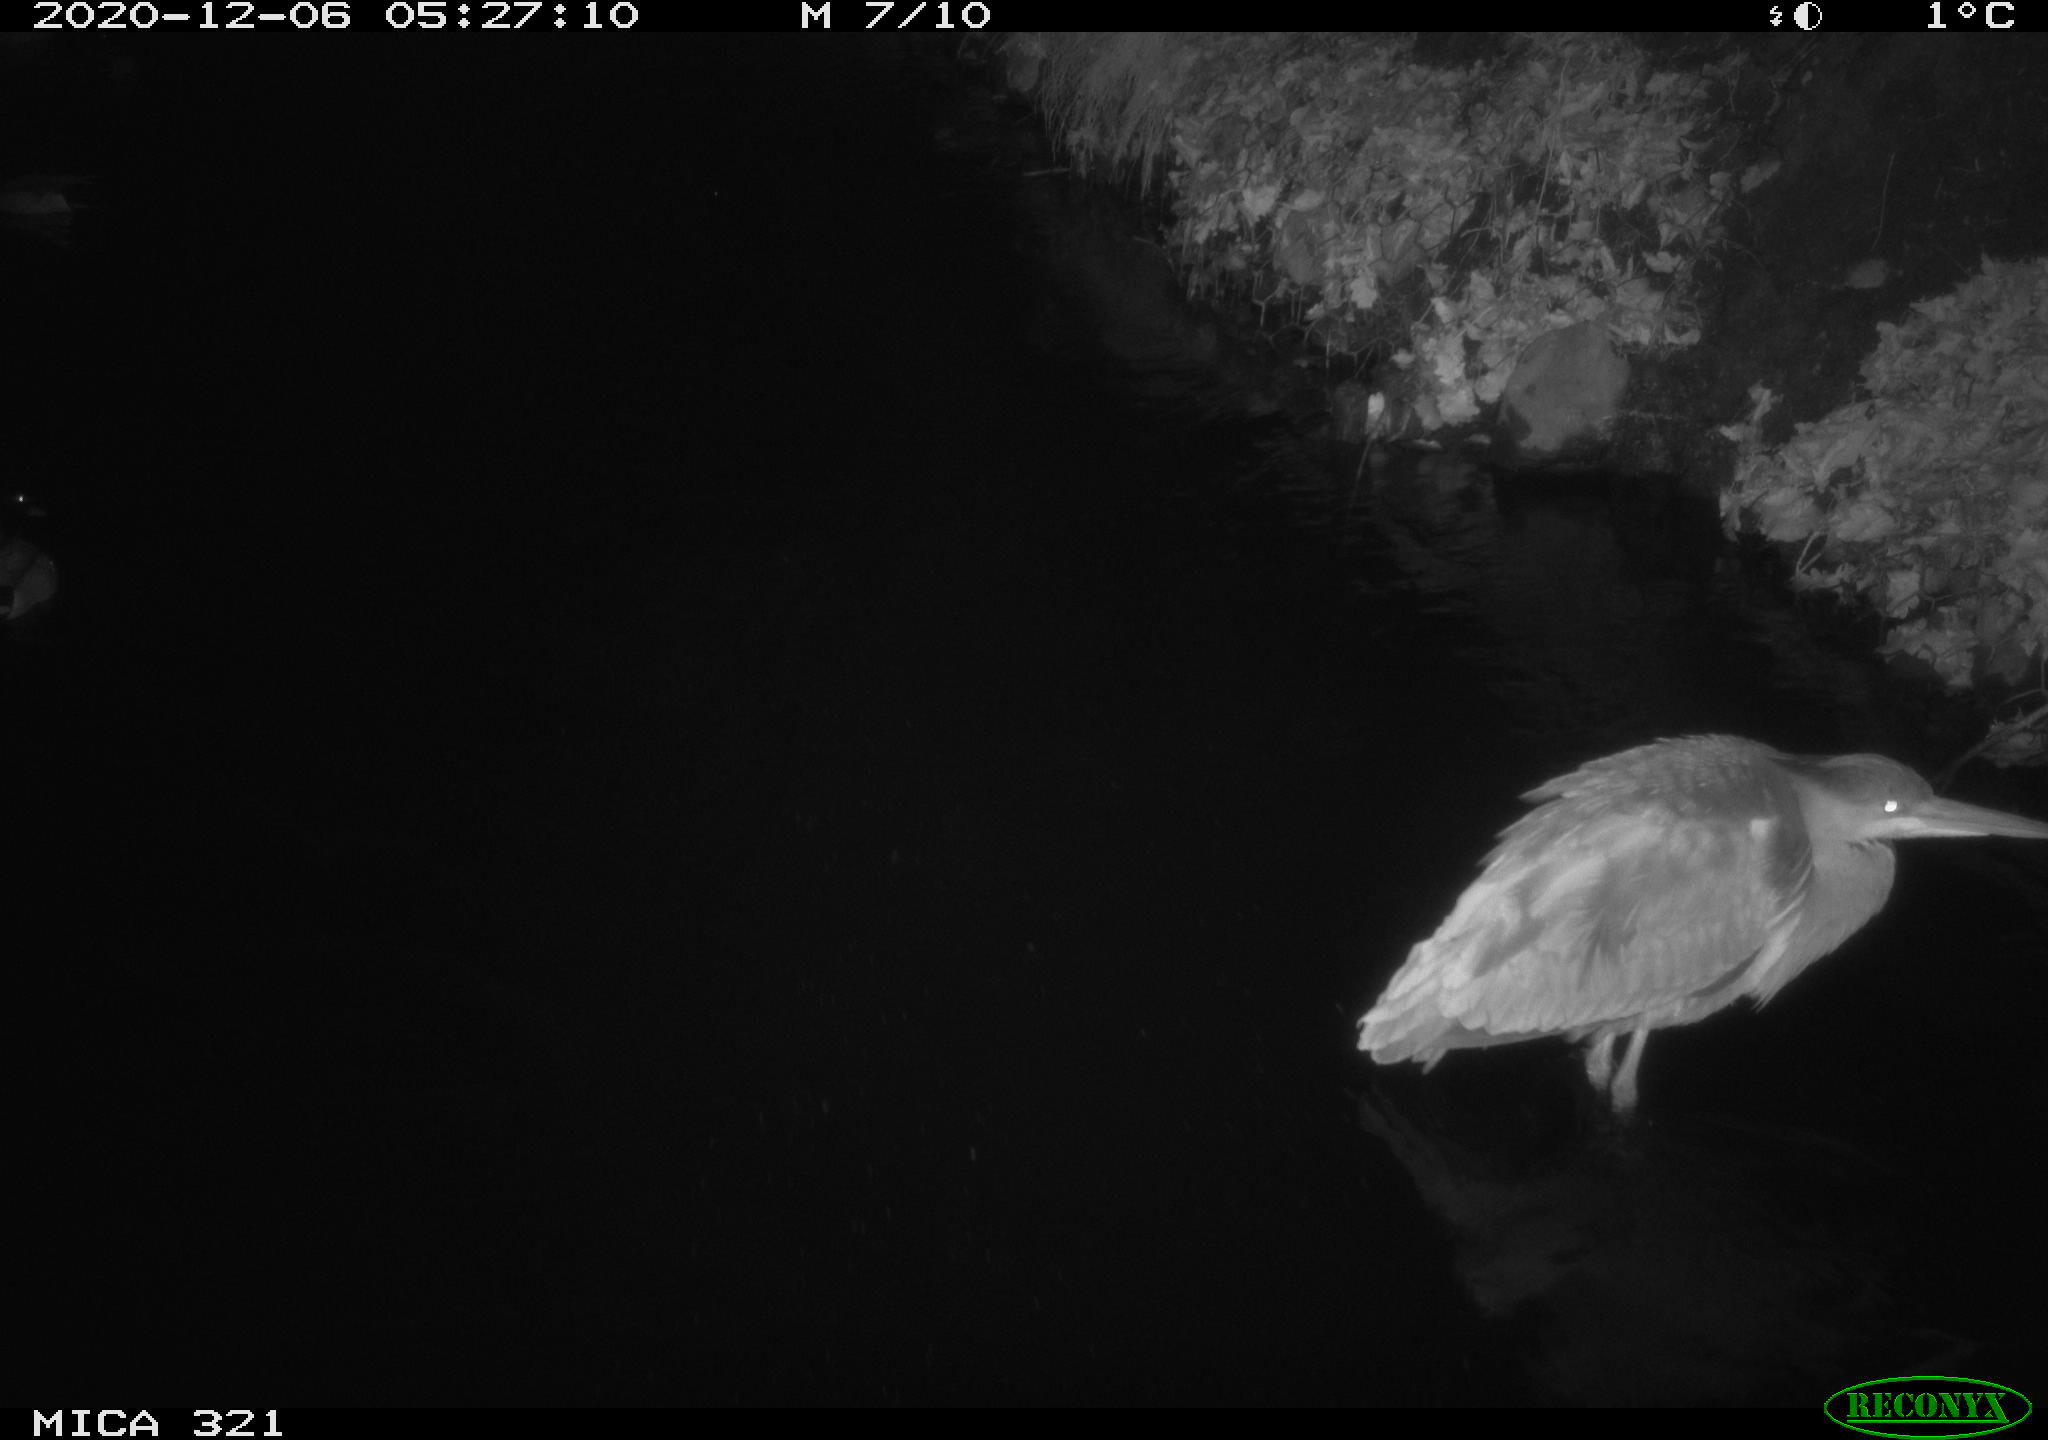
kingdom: Animalia
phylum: Chordata
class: Aves
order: Pelecaniformes
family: Ardeidae
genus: Ardea
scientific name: Ardea cinerea
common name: Grey heron
